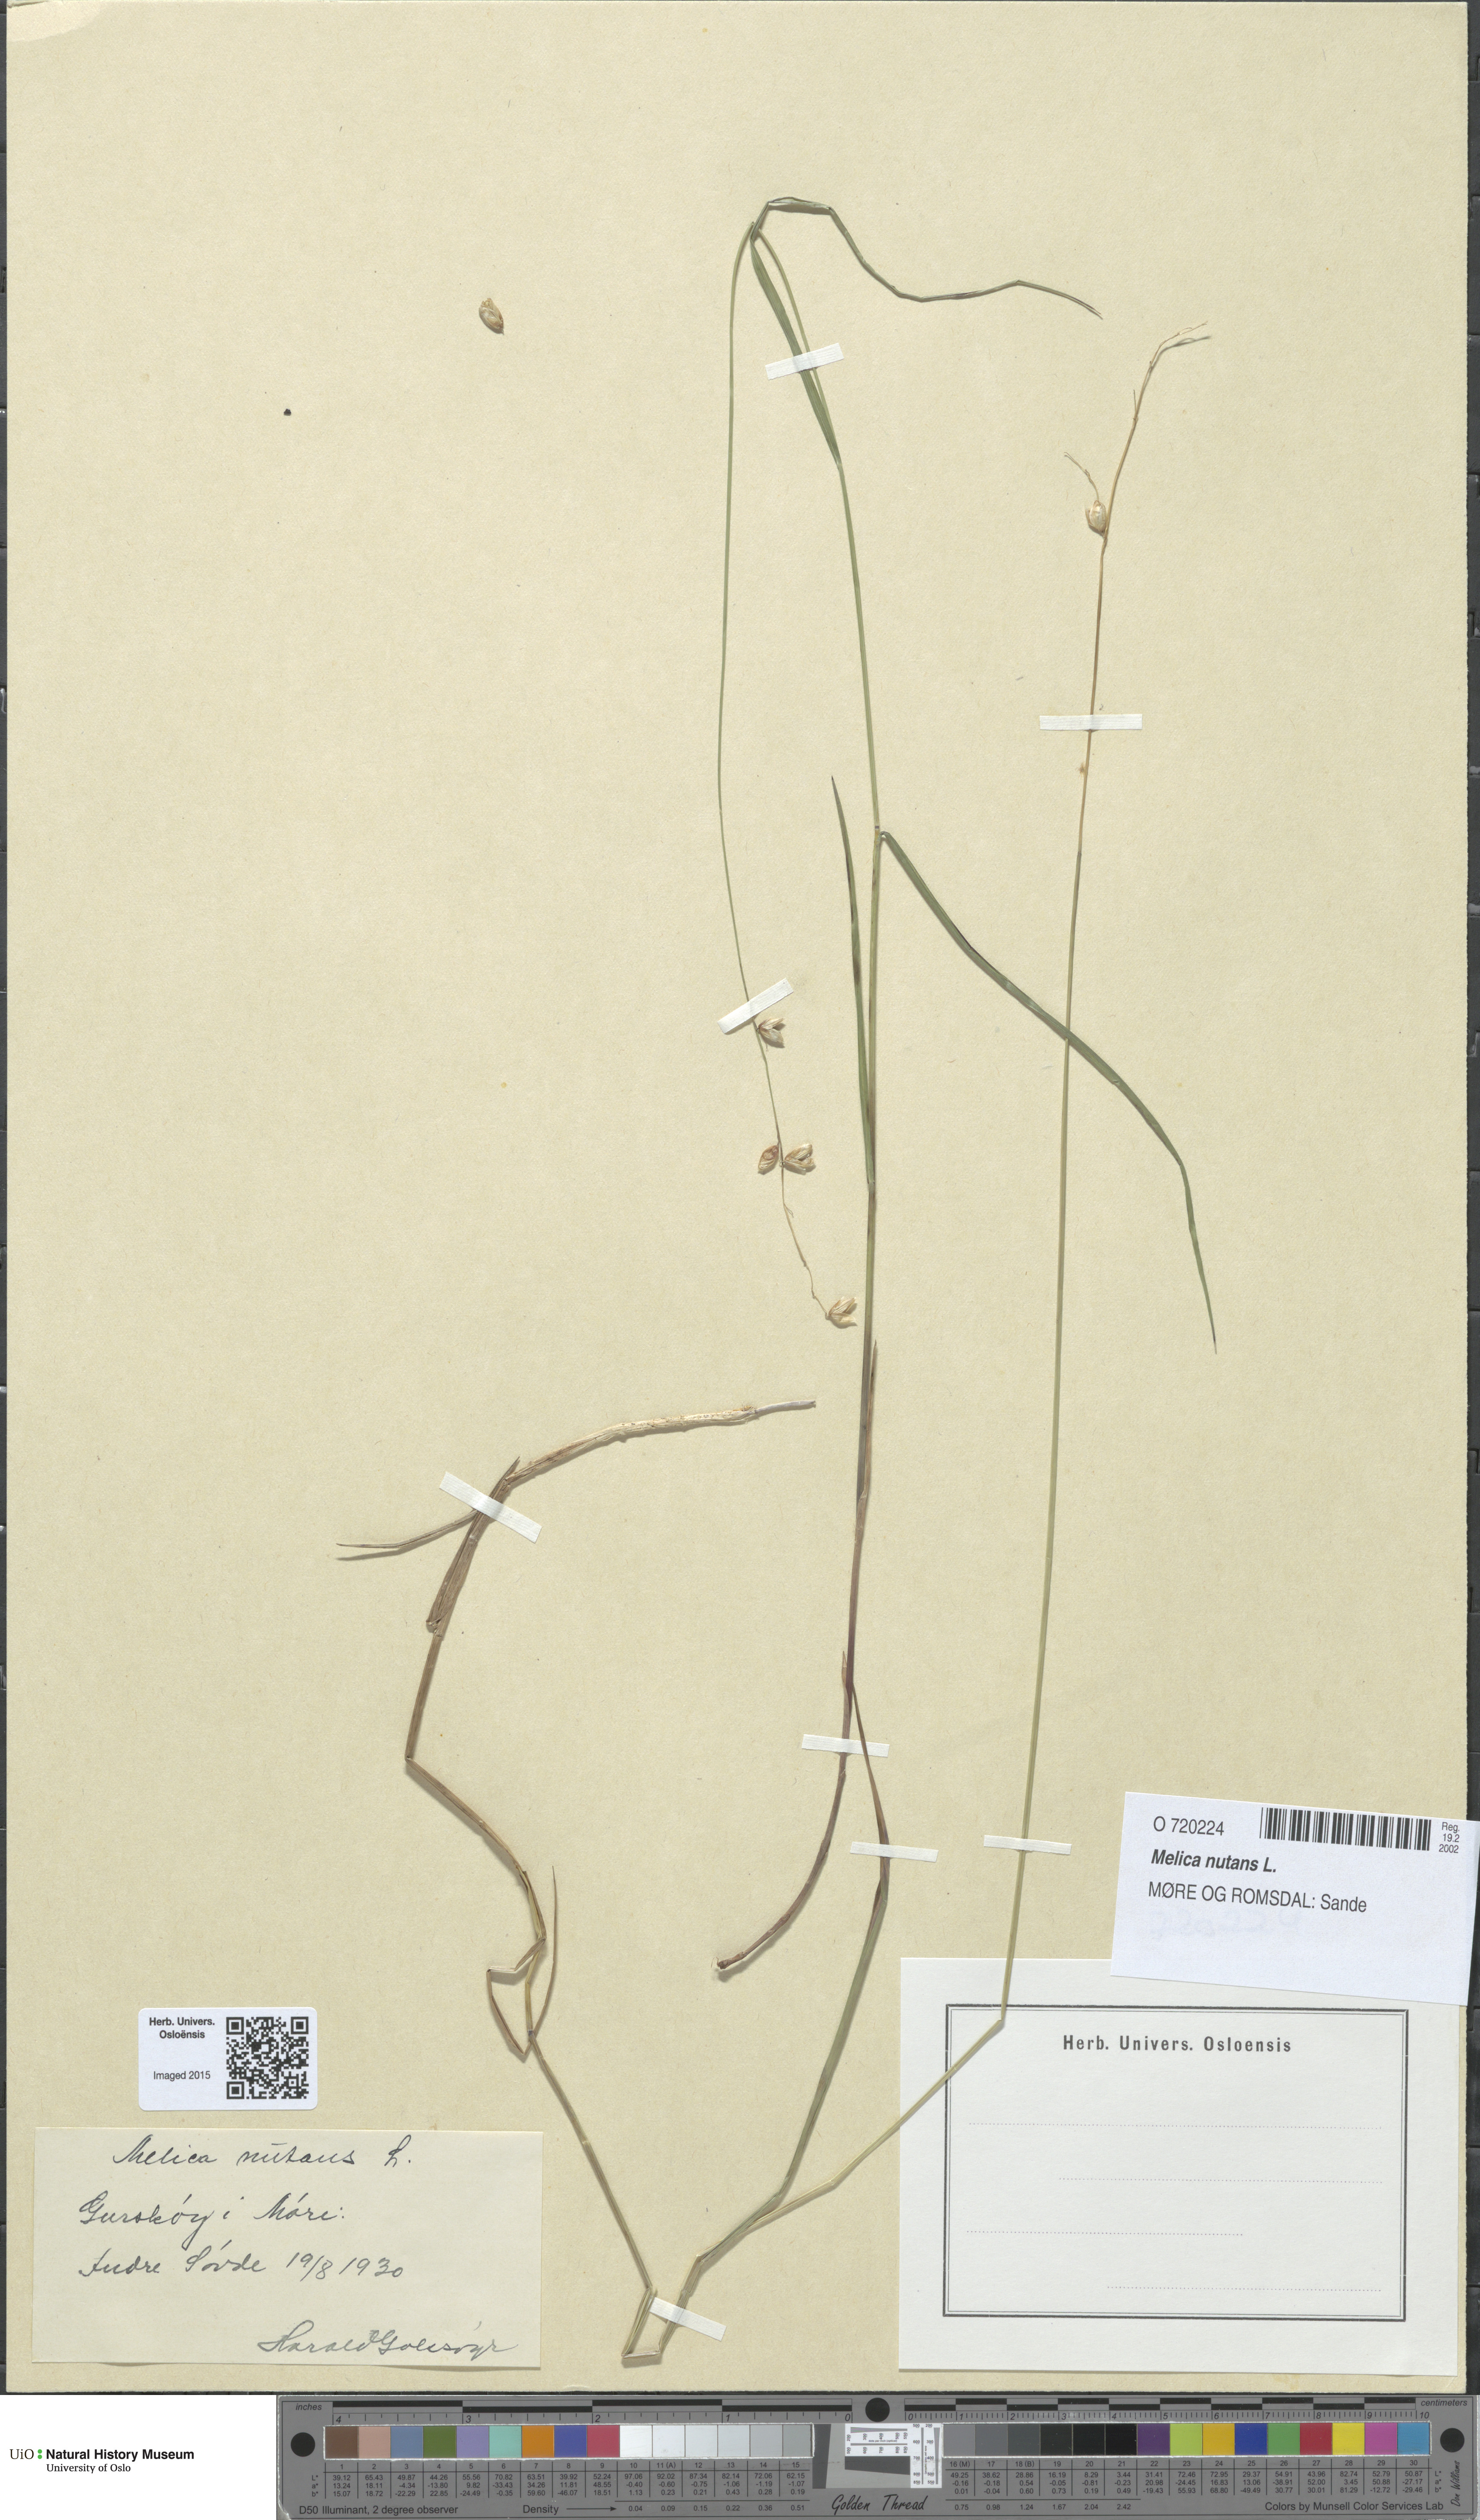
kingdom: Plantae
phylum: Tracheophyta
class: Liliopsida
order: Poales
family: Poaceae
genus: Melica
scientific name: Melica nutans
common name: Mountain melick
